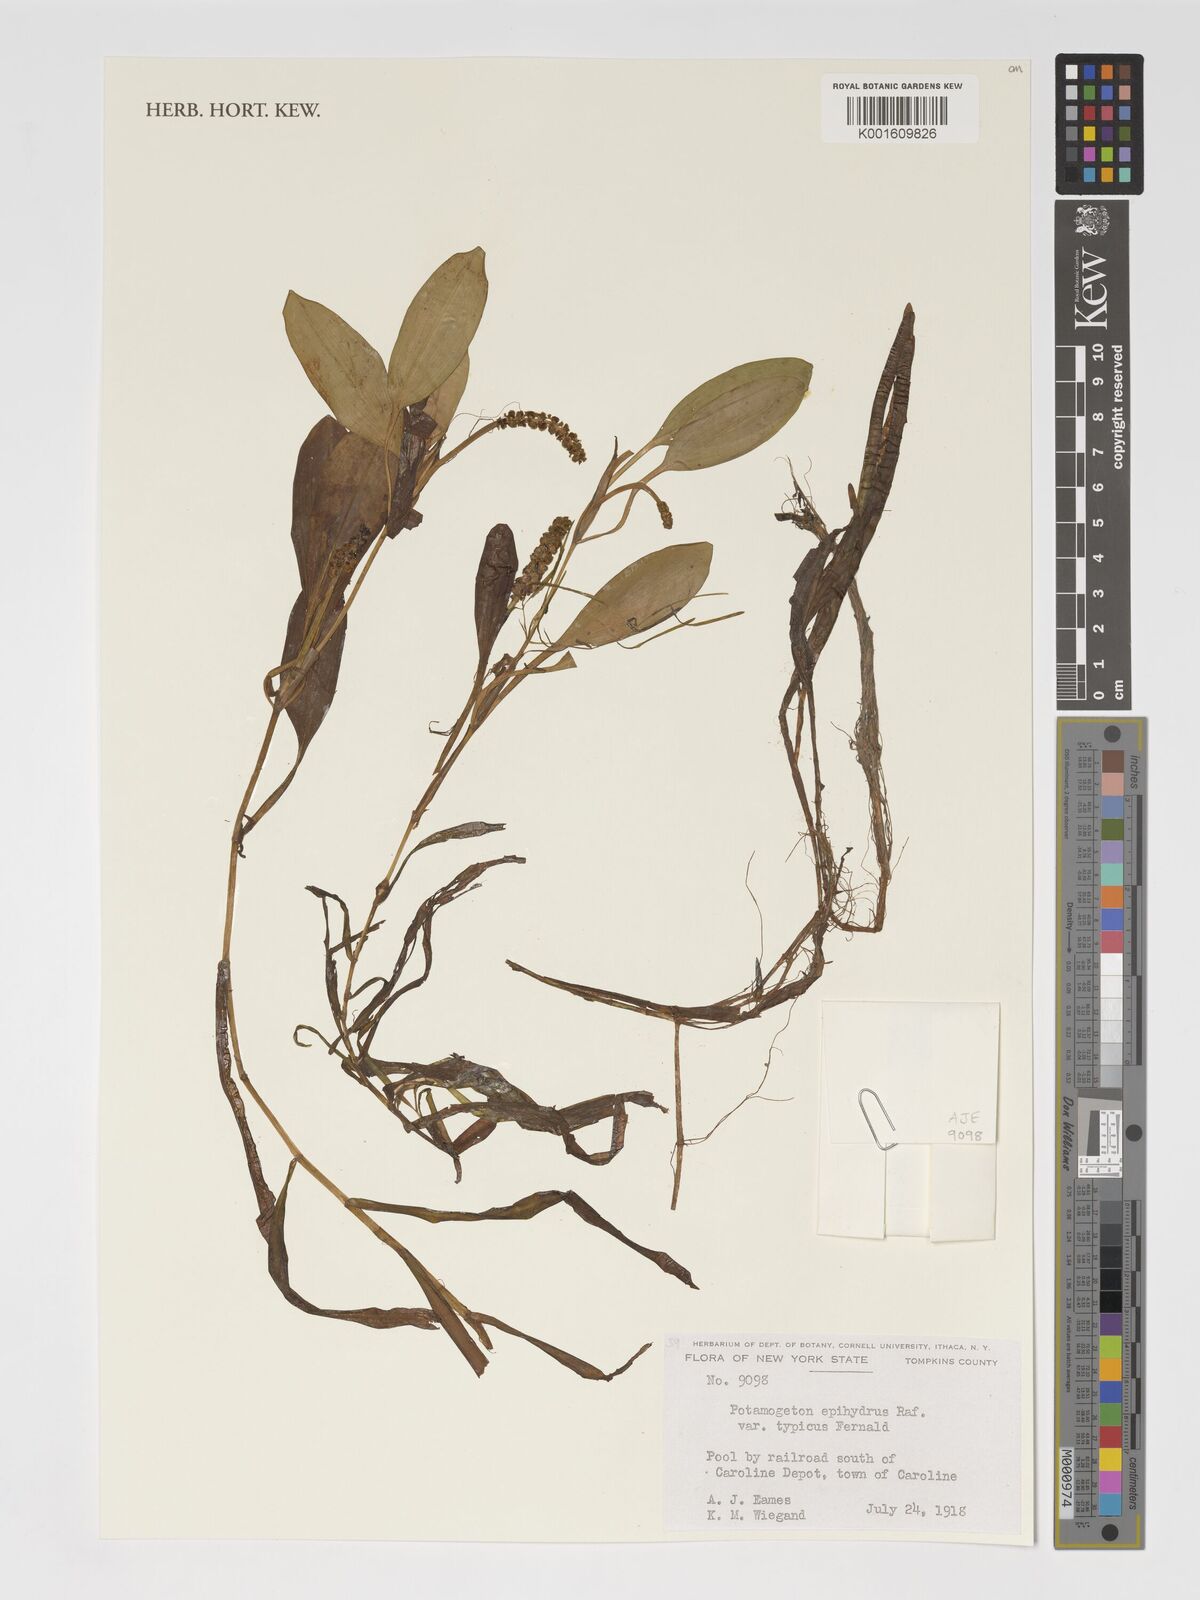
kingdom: Plantae
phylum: Tracheophyta
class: Liliopsida
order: Alismatales
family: Potamogetonaceae
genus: Potamogeton
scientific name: Potamogeton epihydrus
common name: American pondweed
